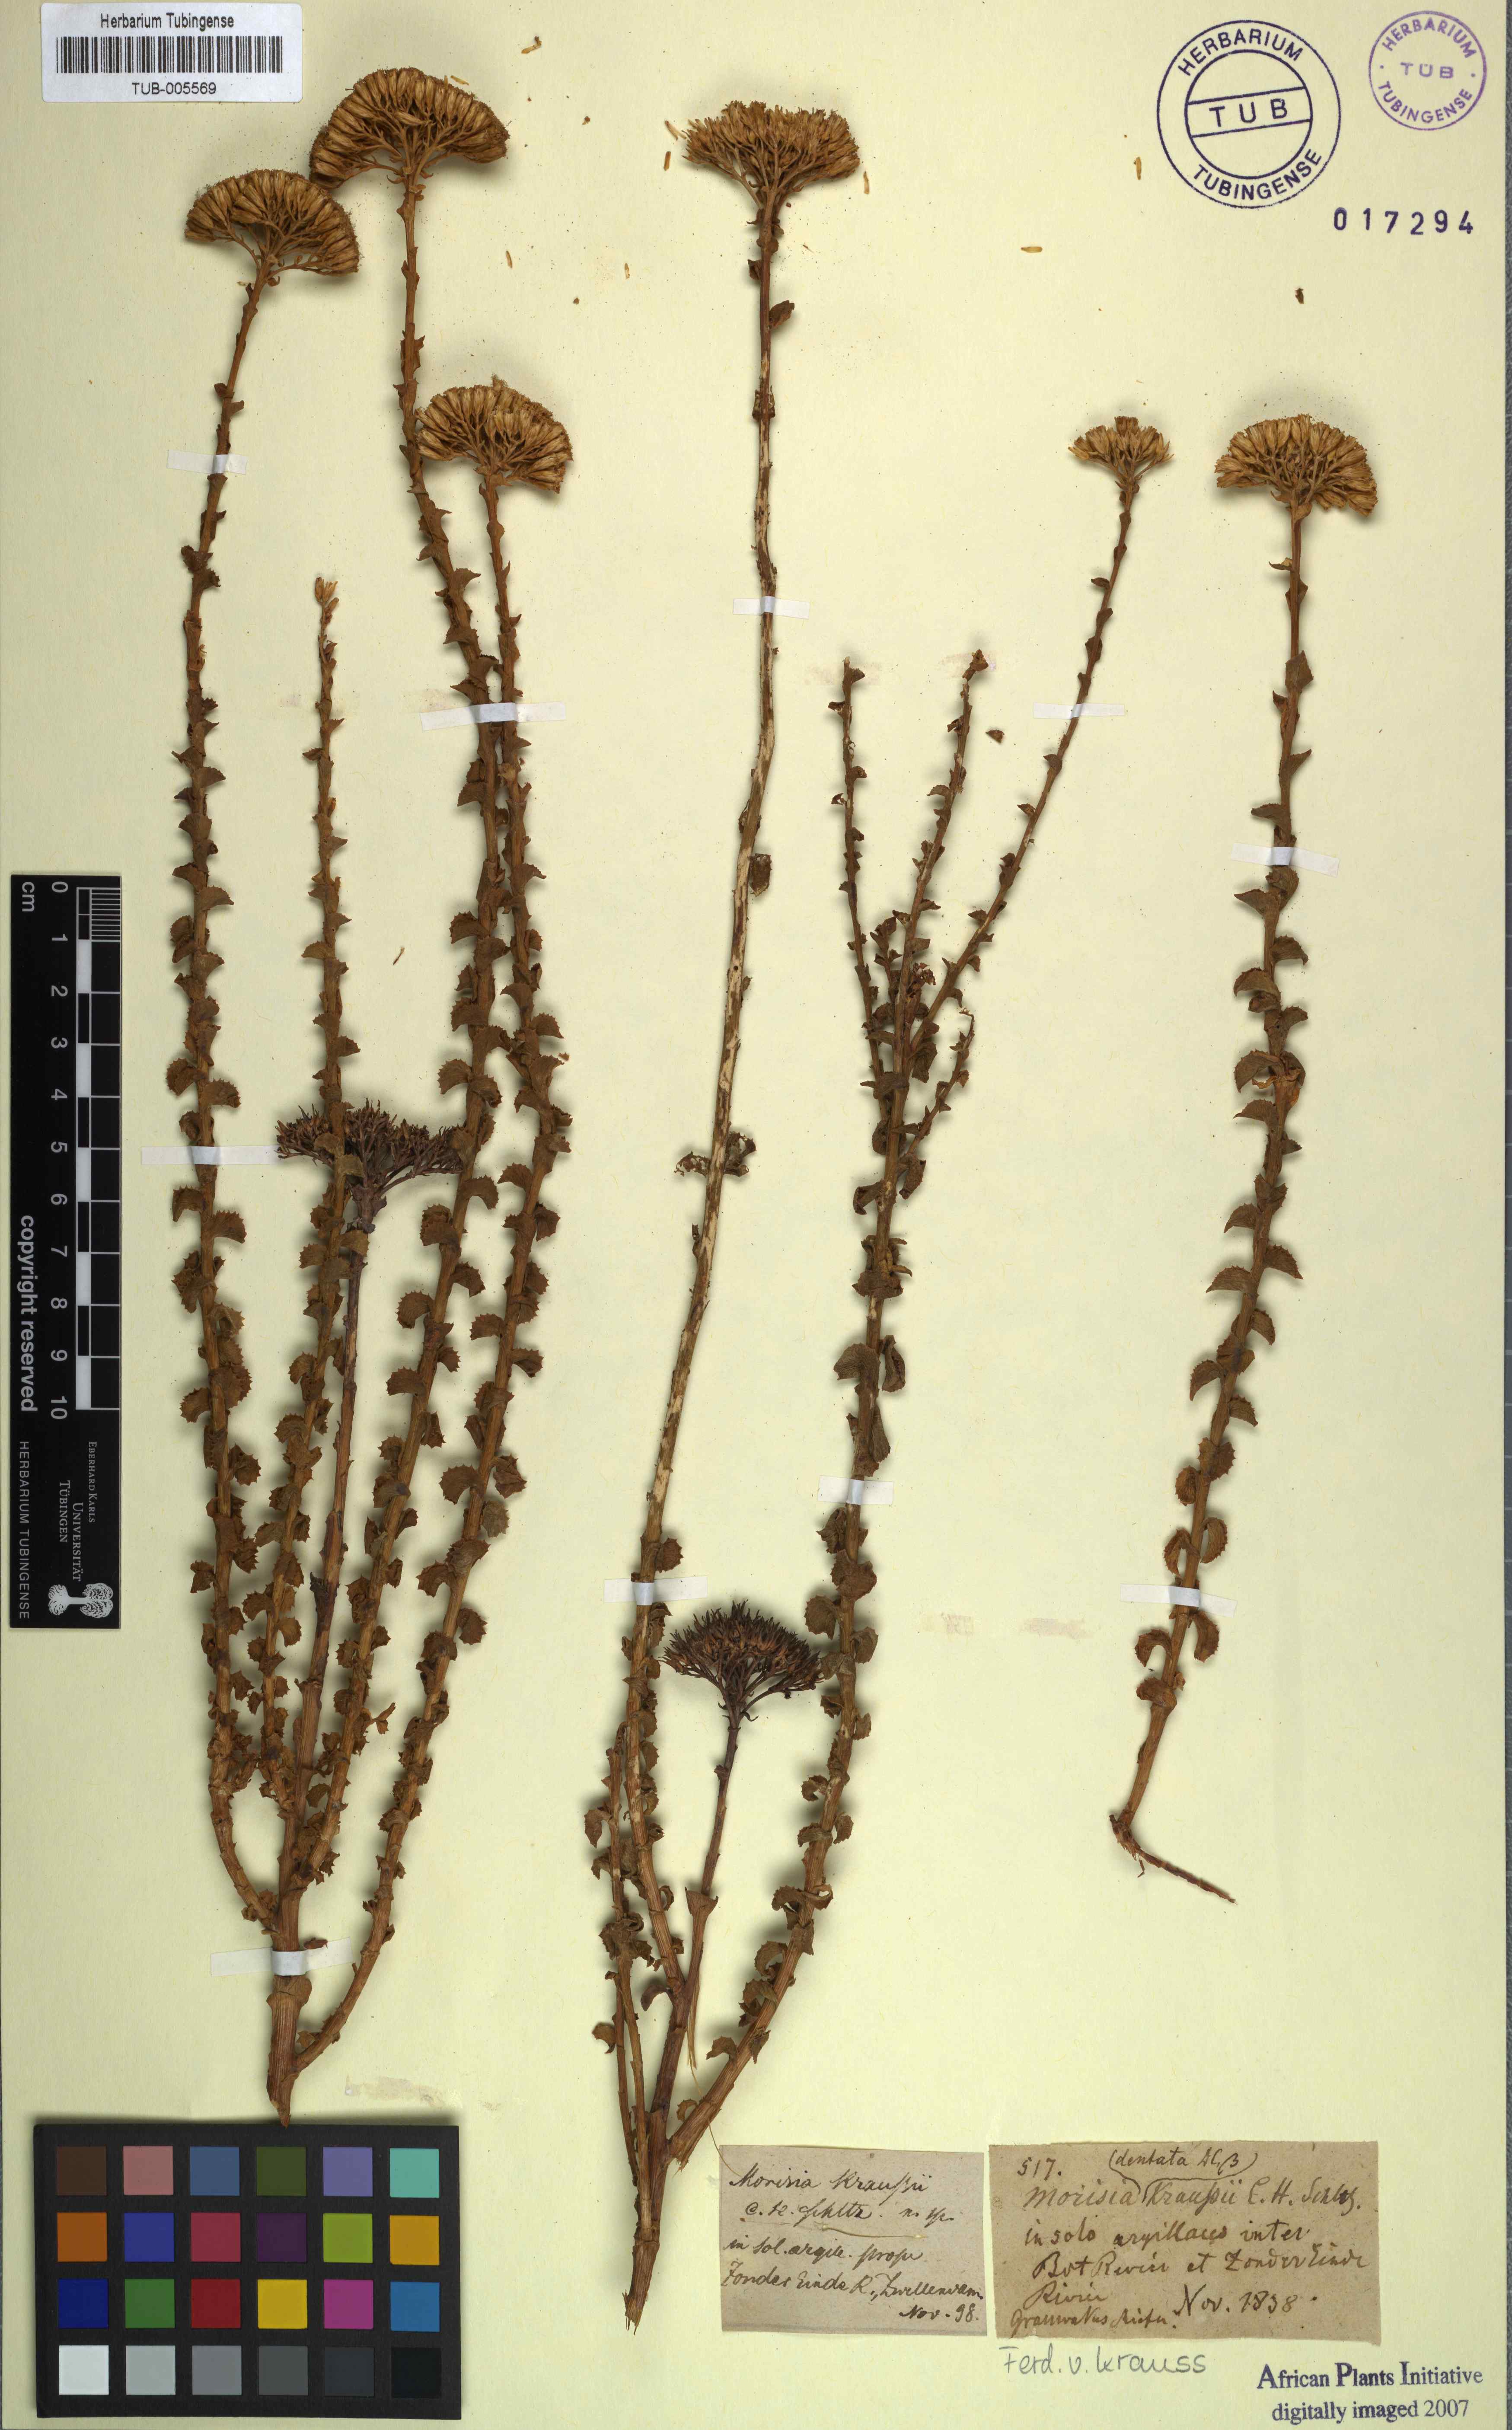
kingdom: Plantae
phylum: Tracheophyta
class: Magnoliopsida
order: Asterales
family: Asteraceae
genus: Athanasia
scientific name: Athanasia dentata
